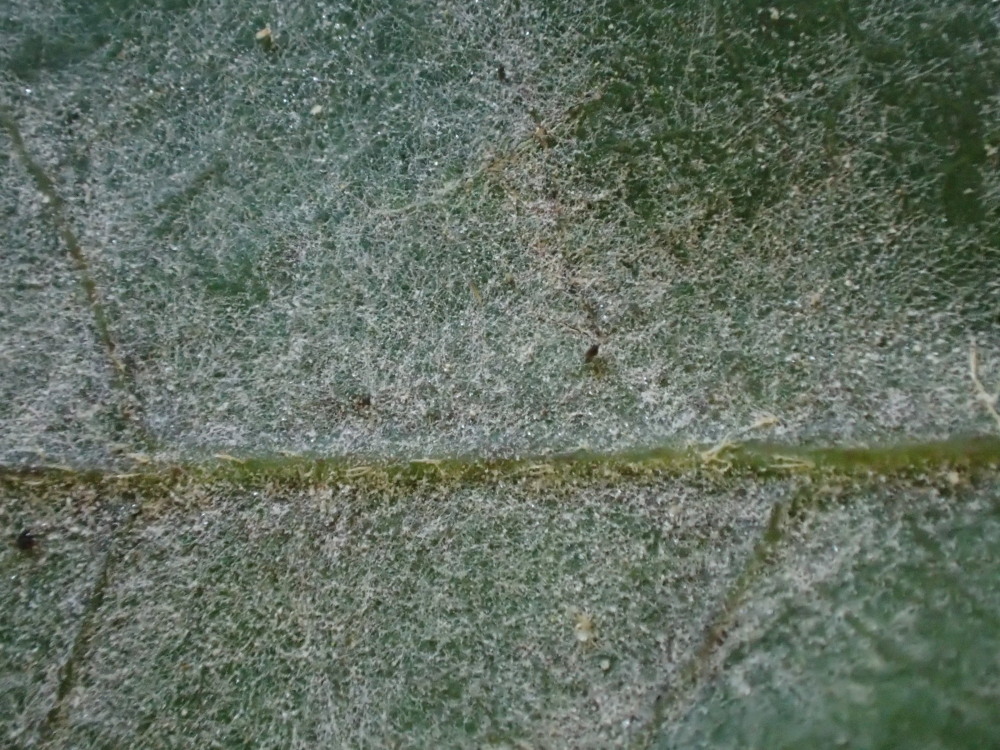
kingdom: Fungi
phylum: Ascomycota
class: Leotiomycetes
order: Helotiales
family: Erysiphaceae
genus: Erysiphe
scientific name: Erysiphe alphitoides
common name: ege-meldug
